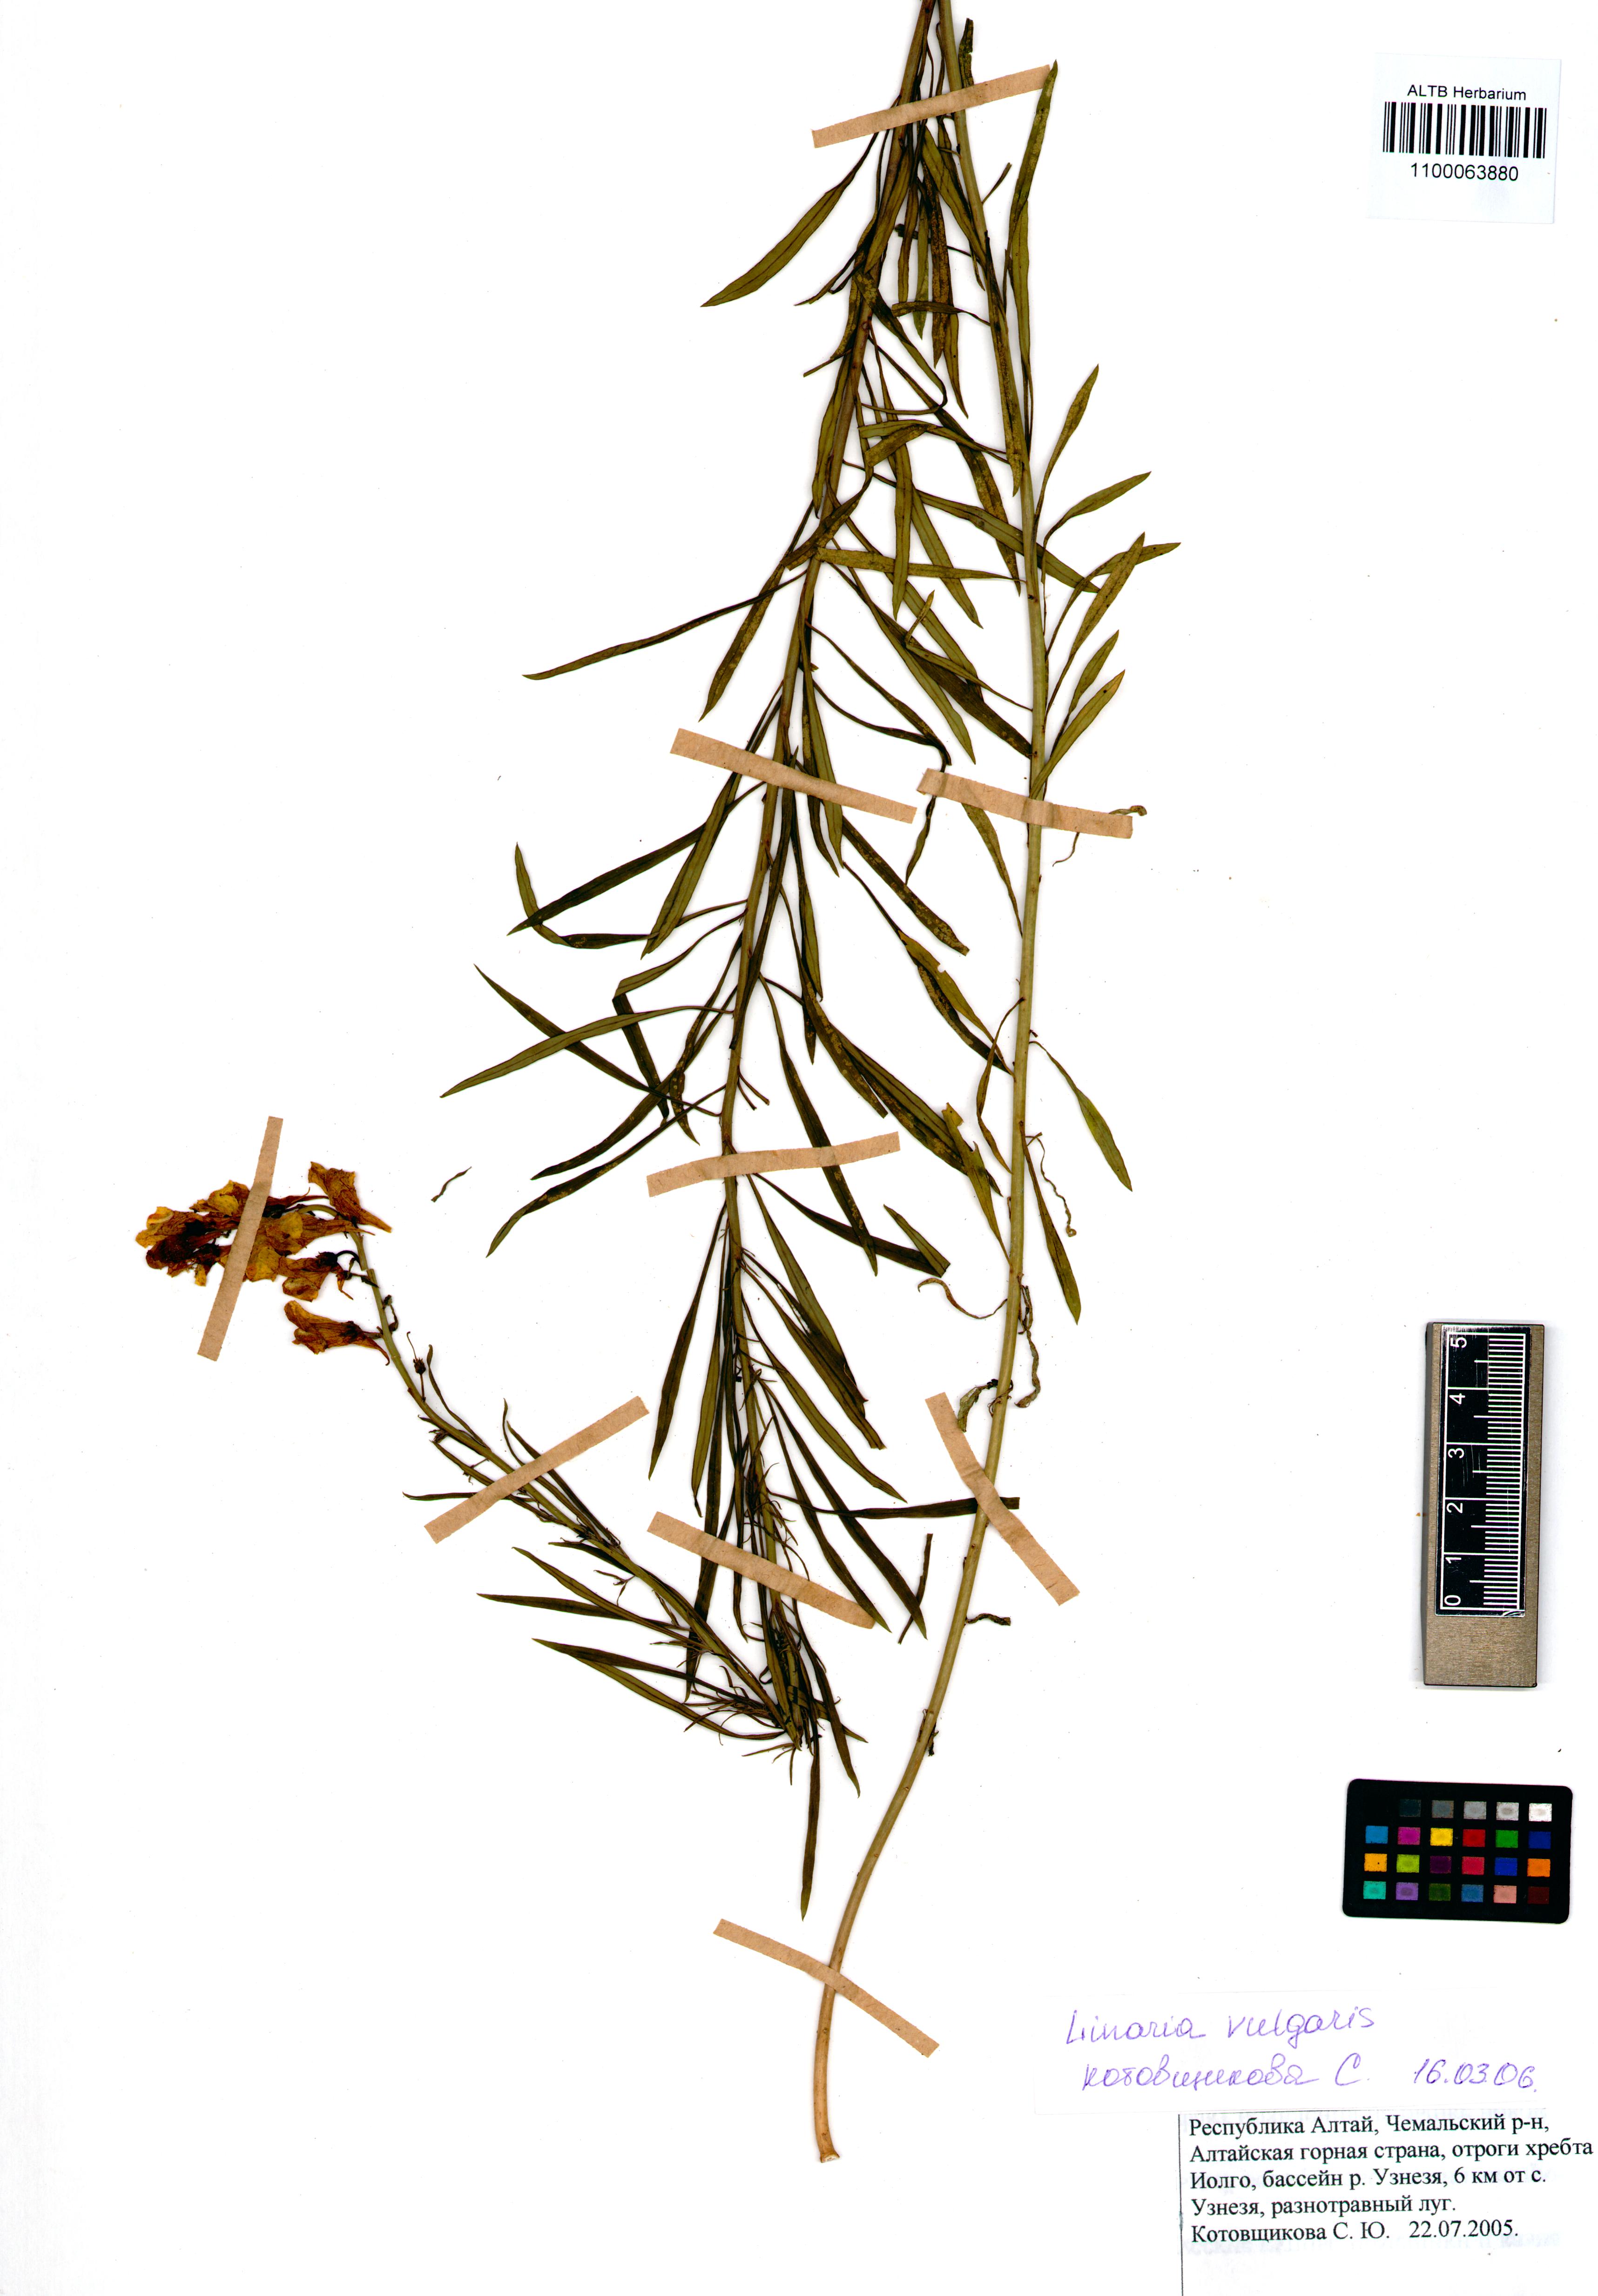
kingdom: Plantae
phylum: Tracheophyta
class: Magnoliopsida
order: Lamiales
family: Plantaginaceae
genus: Linaria
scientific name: Linaria vulgaris
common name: Butter and eggs
